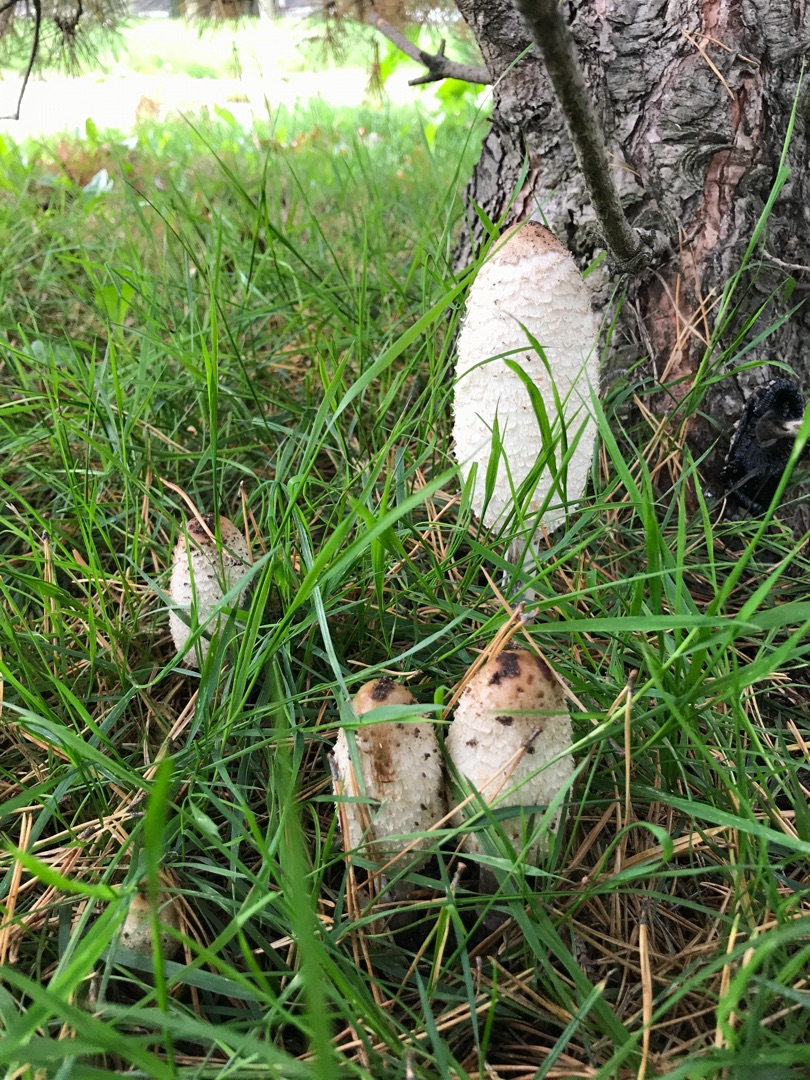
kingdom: Fungi
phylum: Basidiomycota
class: Agaricomycetes
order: Agaricales
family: Agaricaceae
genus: Coprinus
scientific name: Coprinus comatus
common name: Stor parykhat
